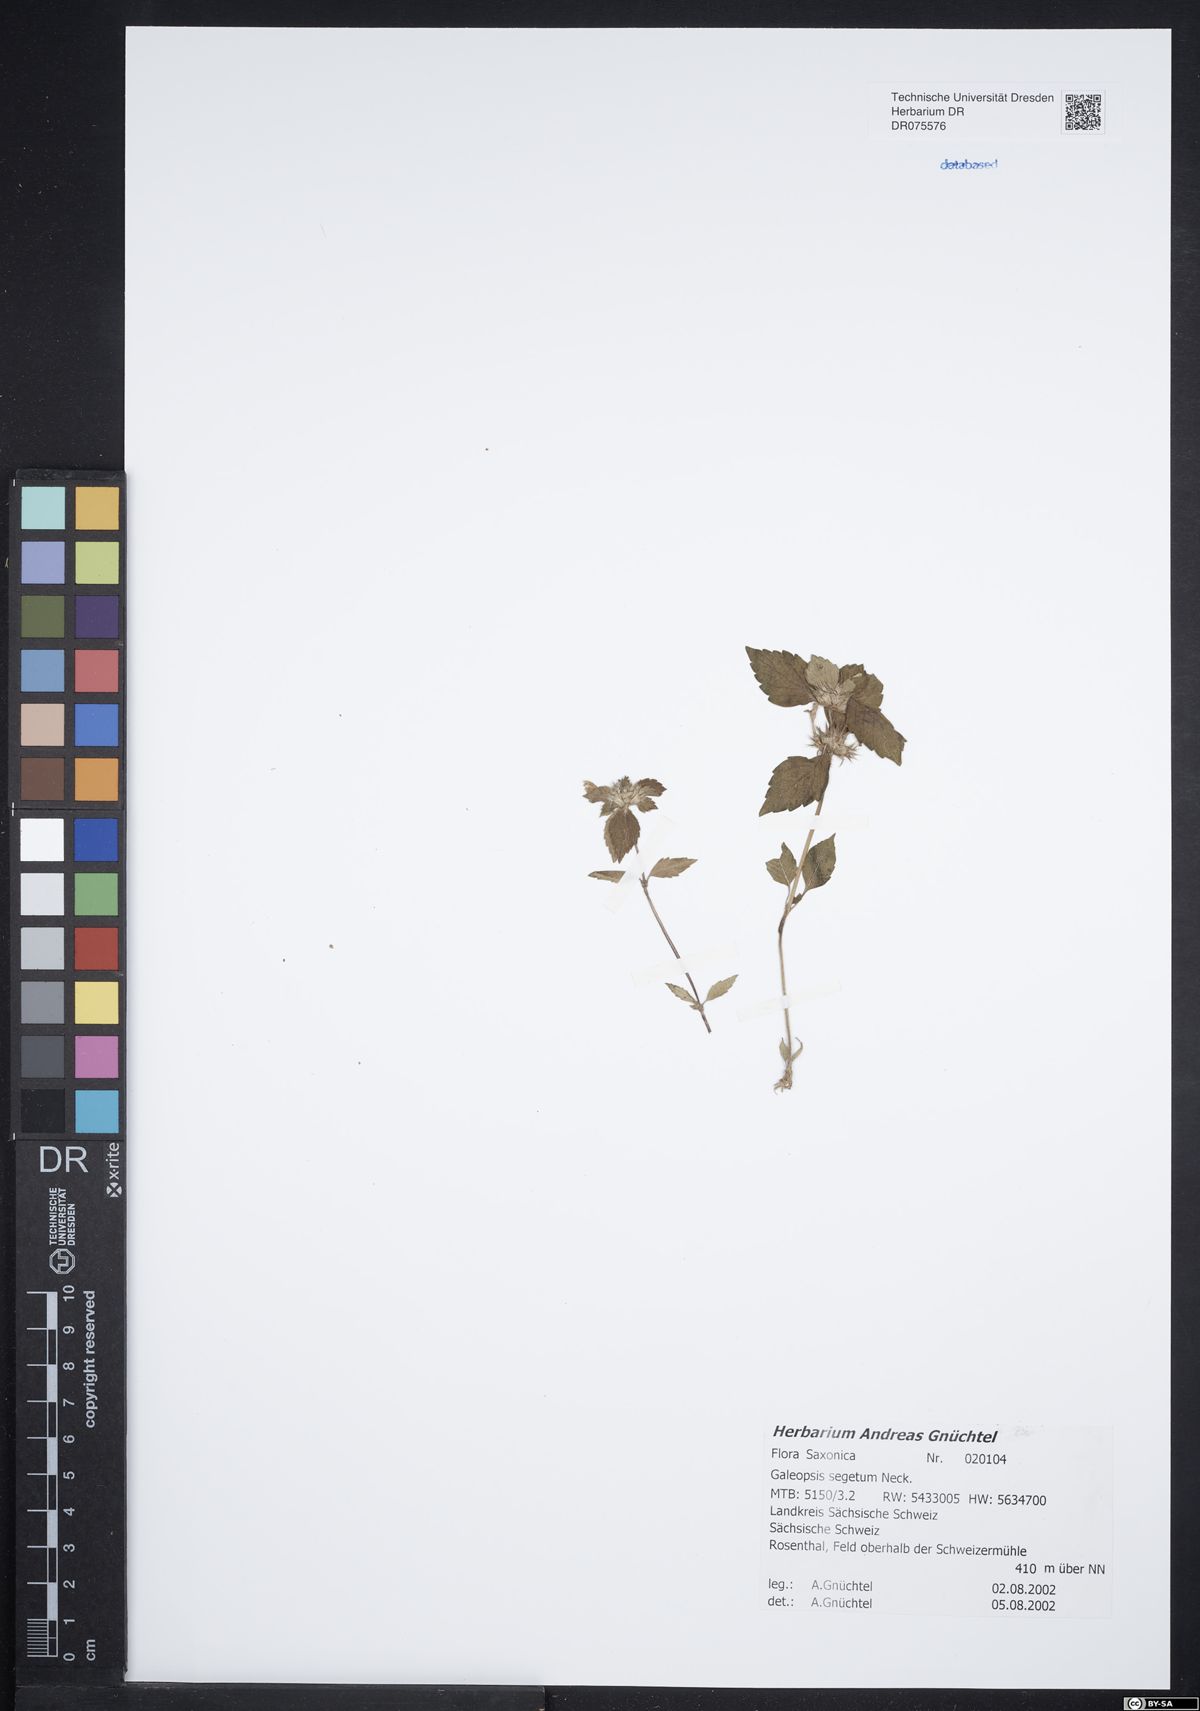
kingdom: Plantae
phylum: Tracheophyta
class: Magnoliopsida
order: Lamiales
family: Lamiaceae
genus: Galeopsis
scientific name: Galeopsis segetum
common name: Downy hemp-nettle
